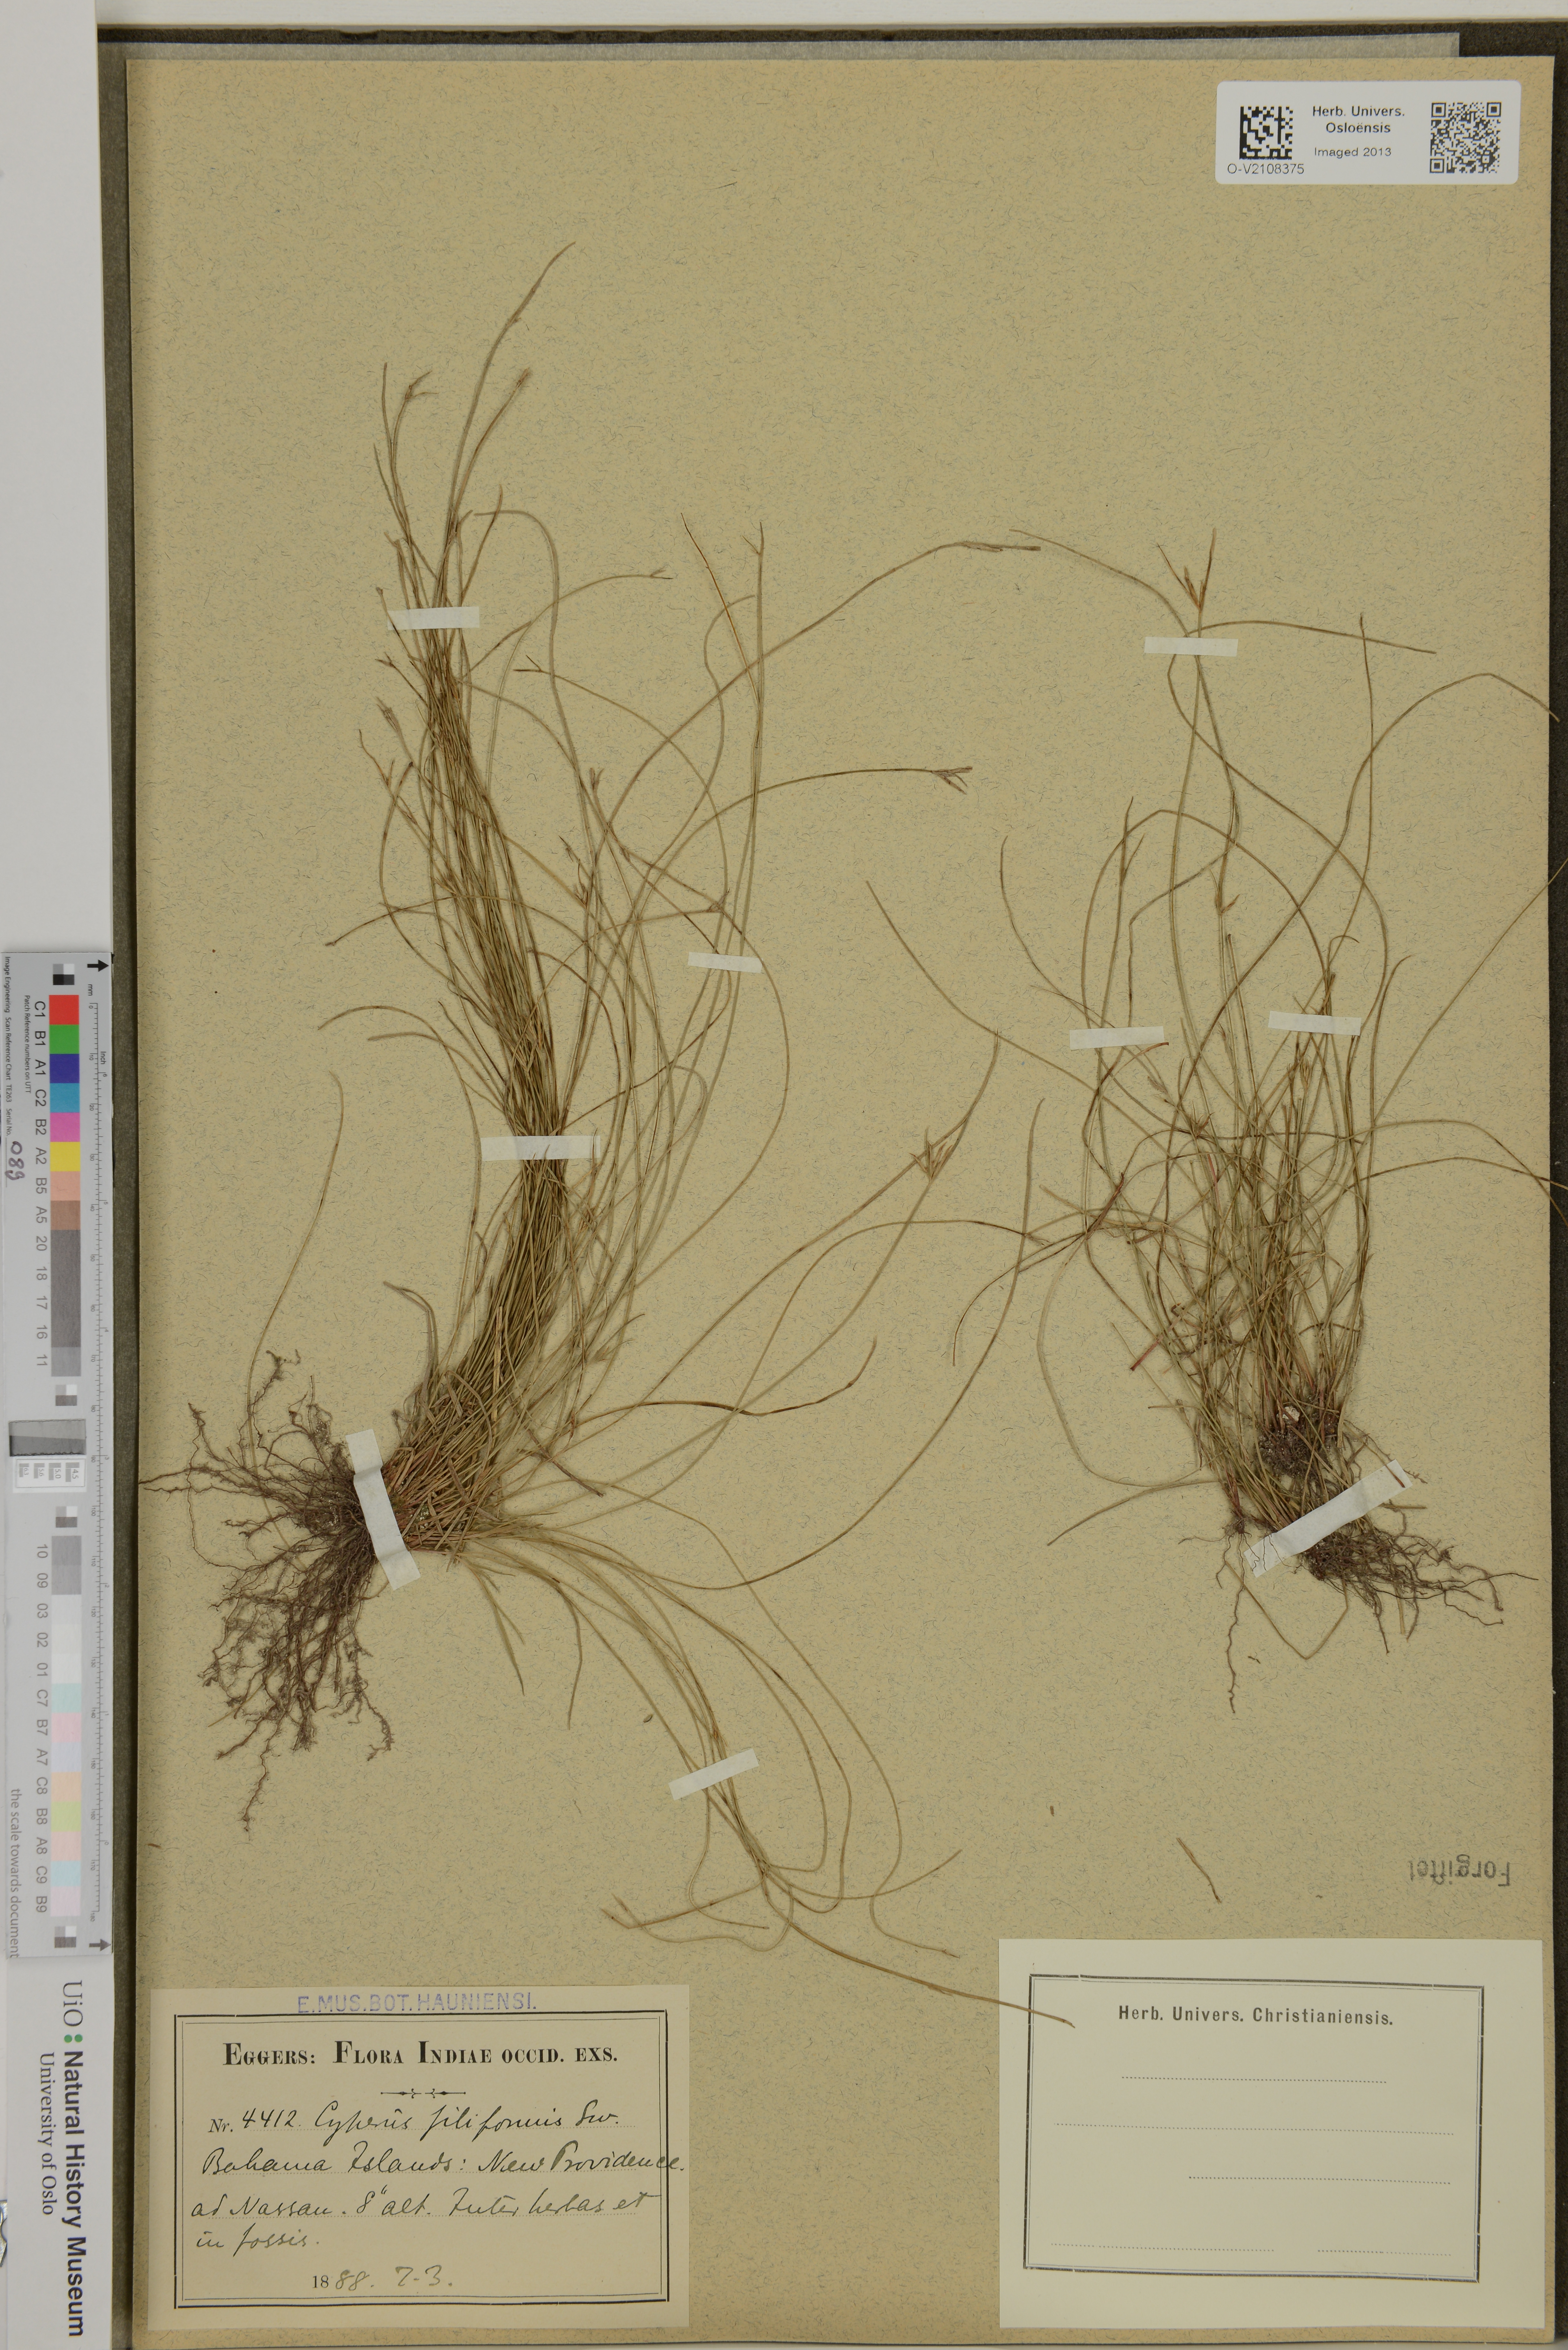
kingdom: Plantae
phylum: Tracheophyta
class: Liliopsida
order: Poales
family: Cyperaceae
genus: Cyperus
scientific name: Cyperus filiformis
